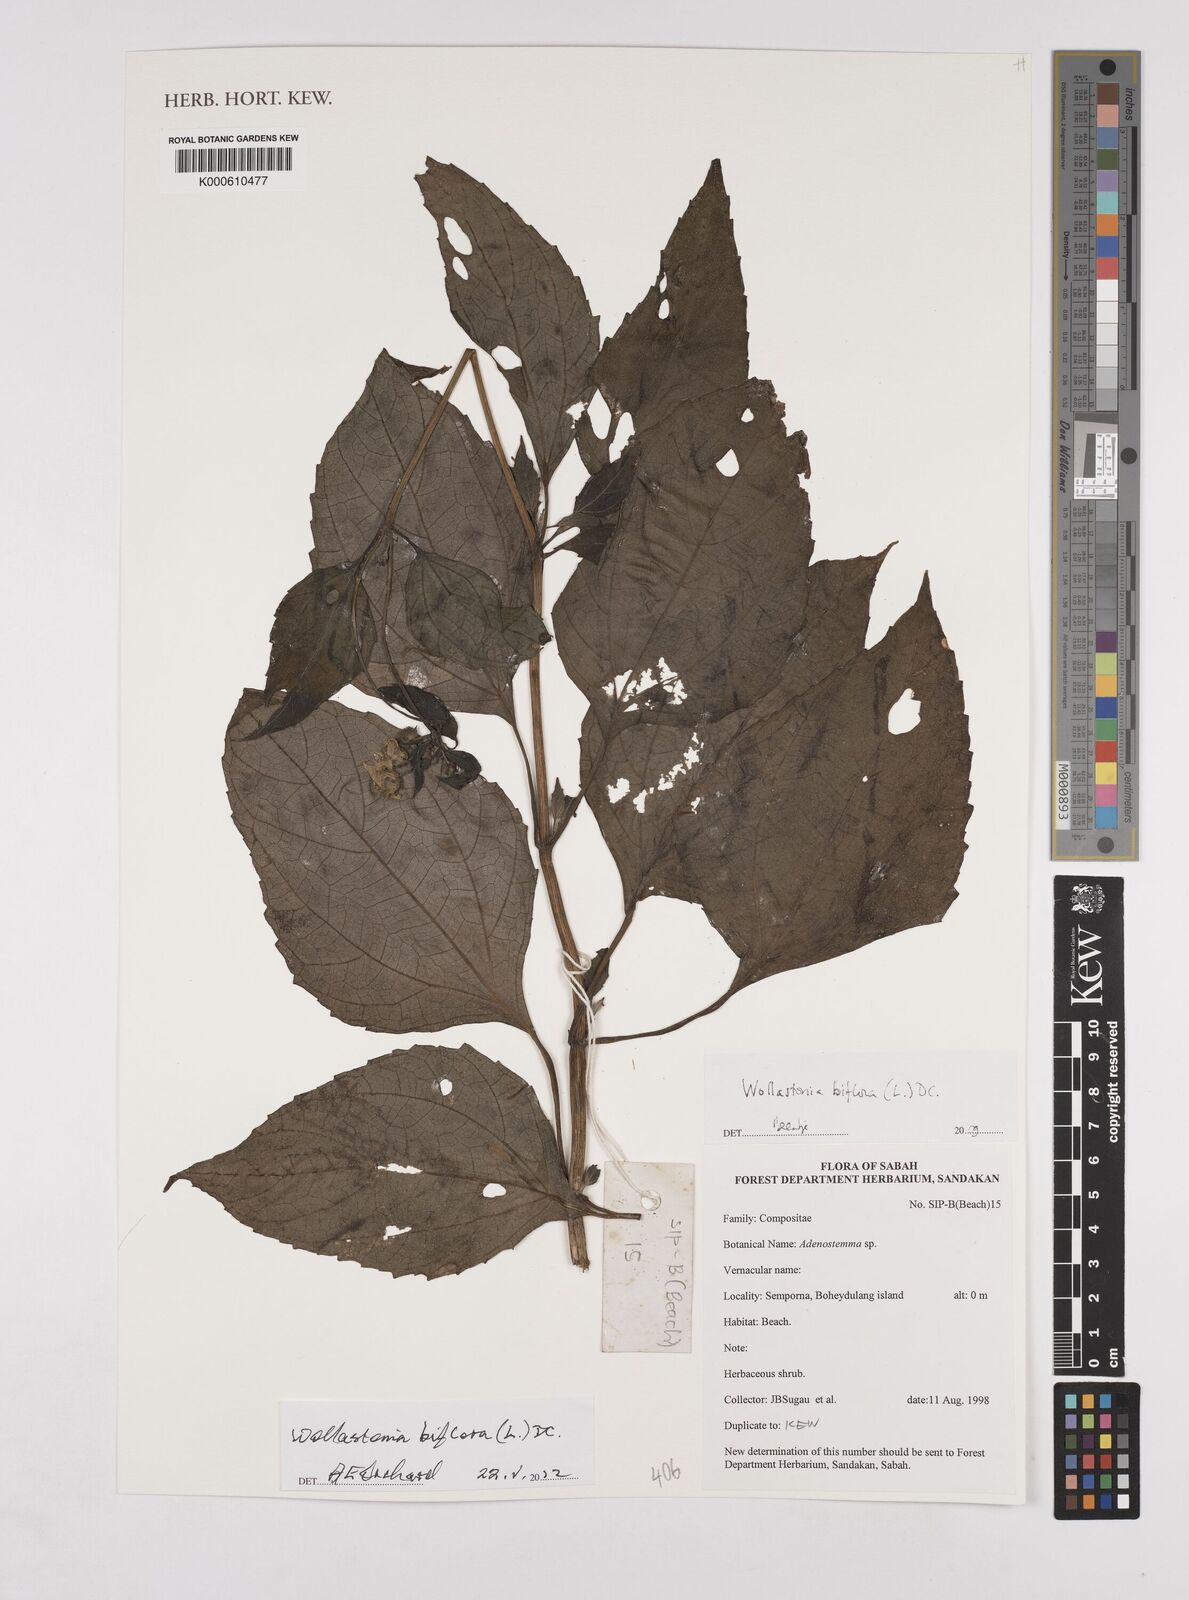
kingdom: Plantae
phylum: Tracheophyta
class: Magnoliopsida
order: Asterales
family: Asteraceae
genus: Wollastonia
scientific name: Wollastonia biflora
